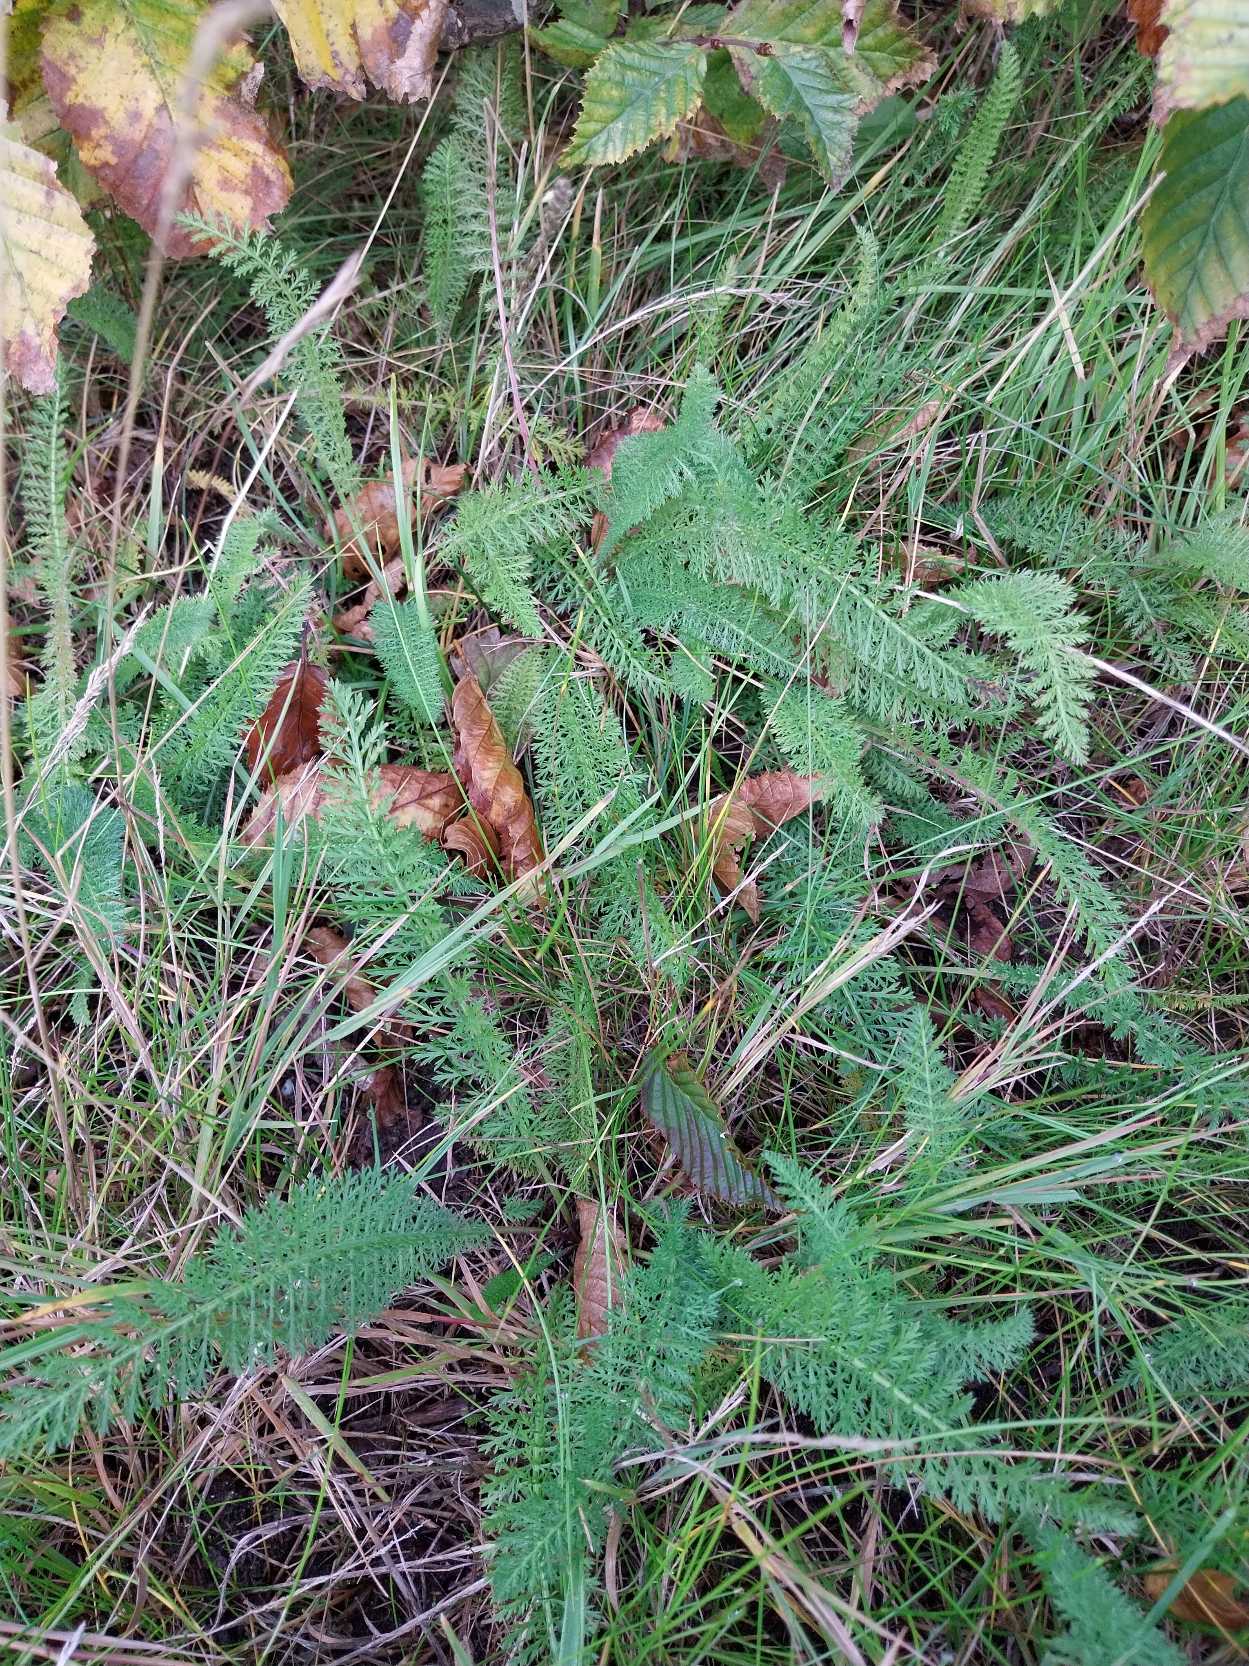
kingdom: Plantae
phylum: Tracheophyta
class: Magnoliopsida
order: Asterales
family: Asteraceae
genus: Achillea
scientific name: Achillea millefolium
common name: Almindelig røllike
